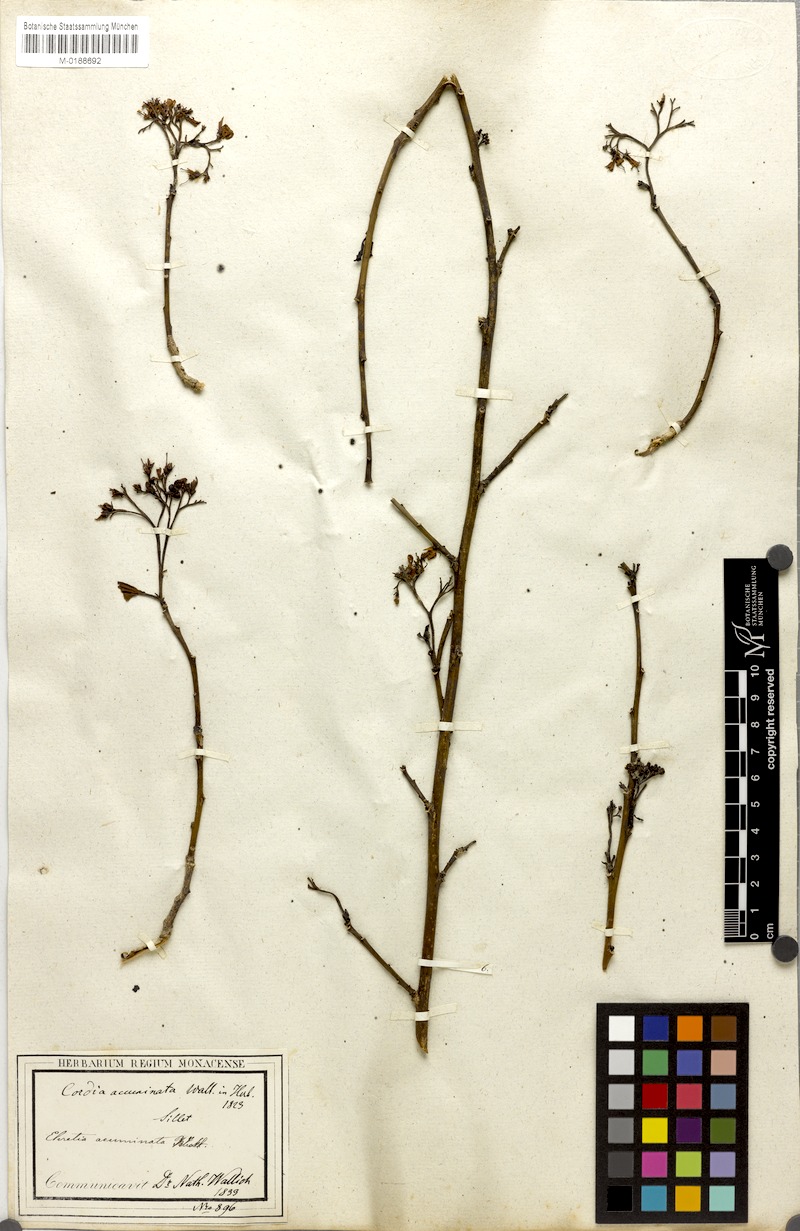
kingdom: Plantae
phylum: Tracheophyta
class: Magnoliopsida
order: Boraginales
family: Ehretiaceae
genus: Ehretia
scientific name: Ehretia wallichiana
